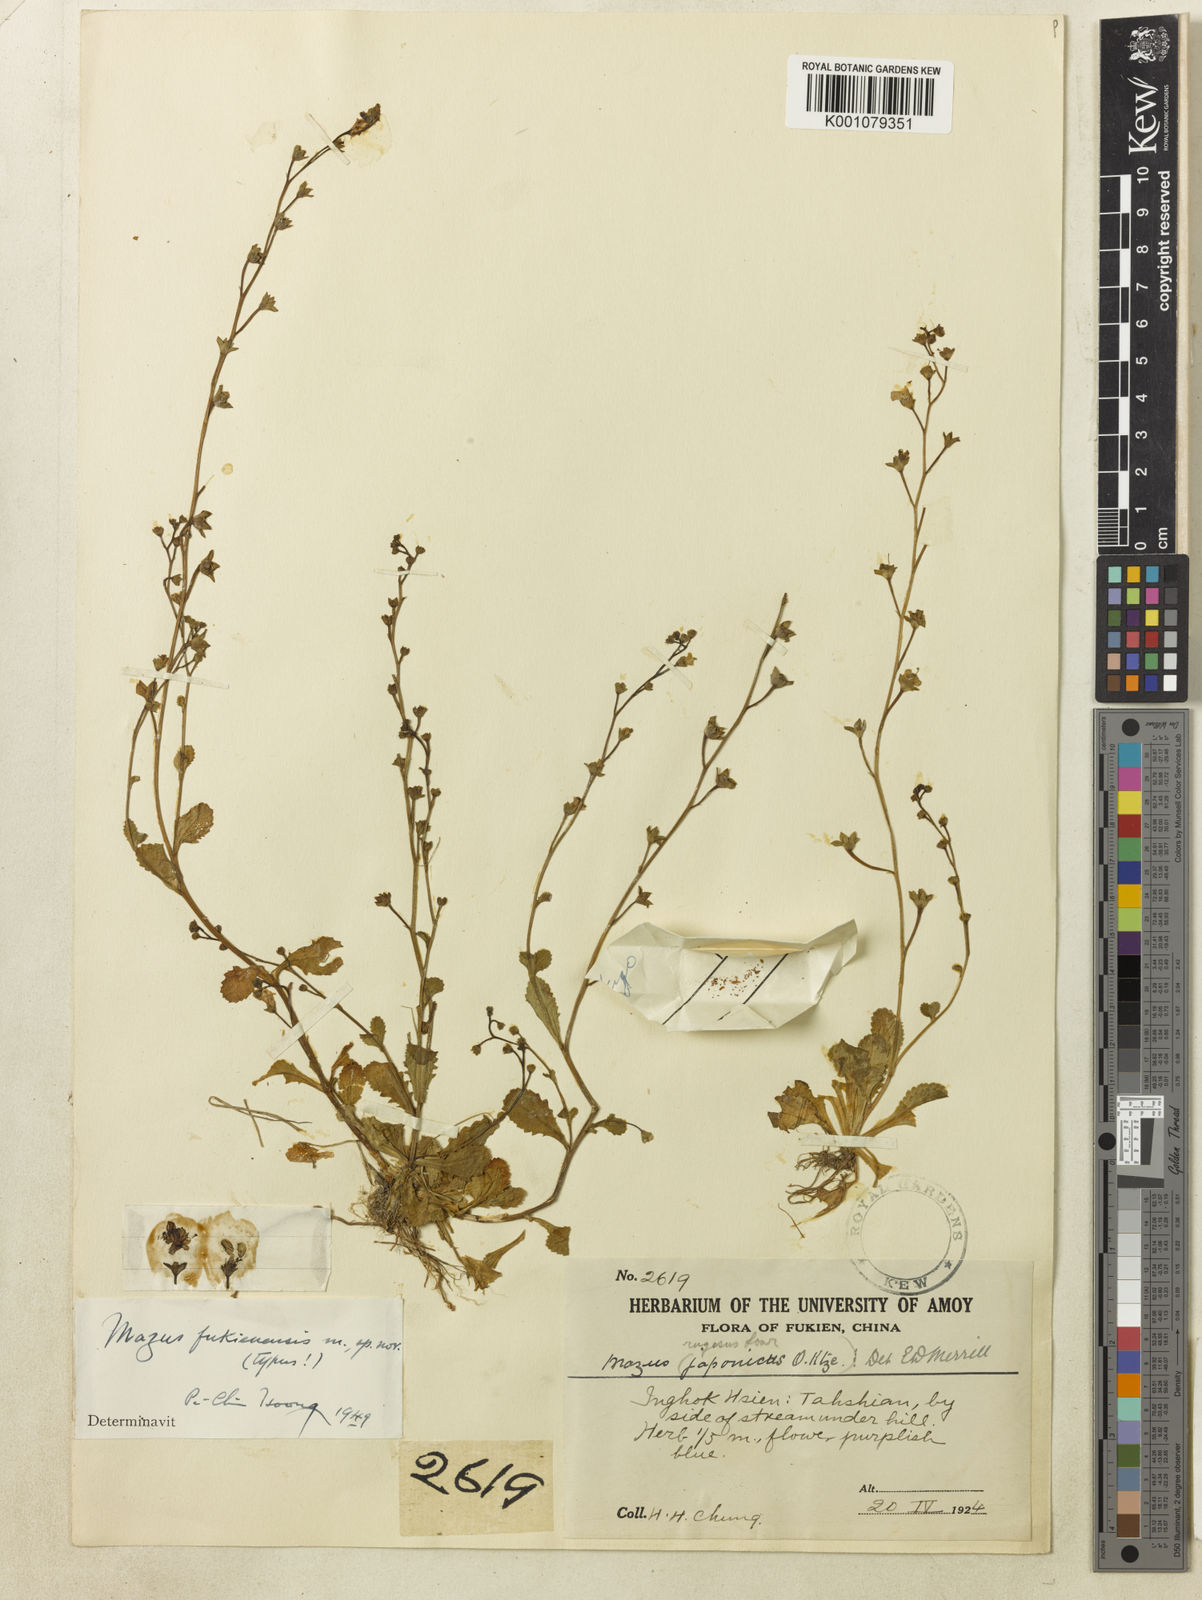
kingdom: Plantae
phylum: Tracheophyta
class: Magnoliopsida
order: Lamiales
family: Mazaceae
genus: Mazus
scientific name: Mazus fukienensis
